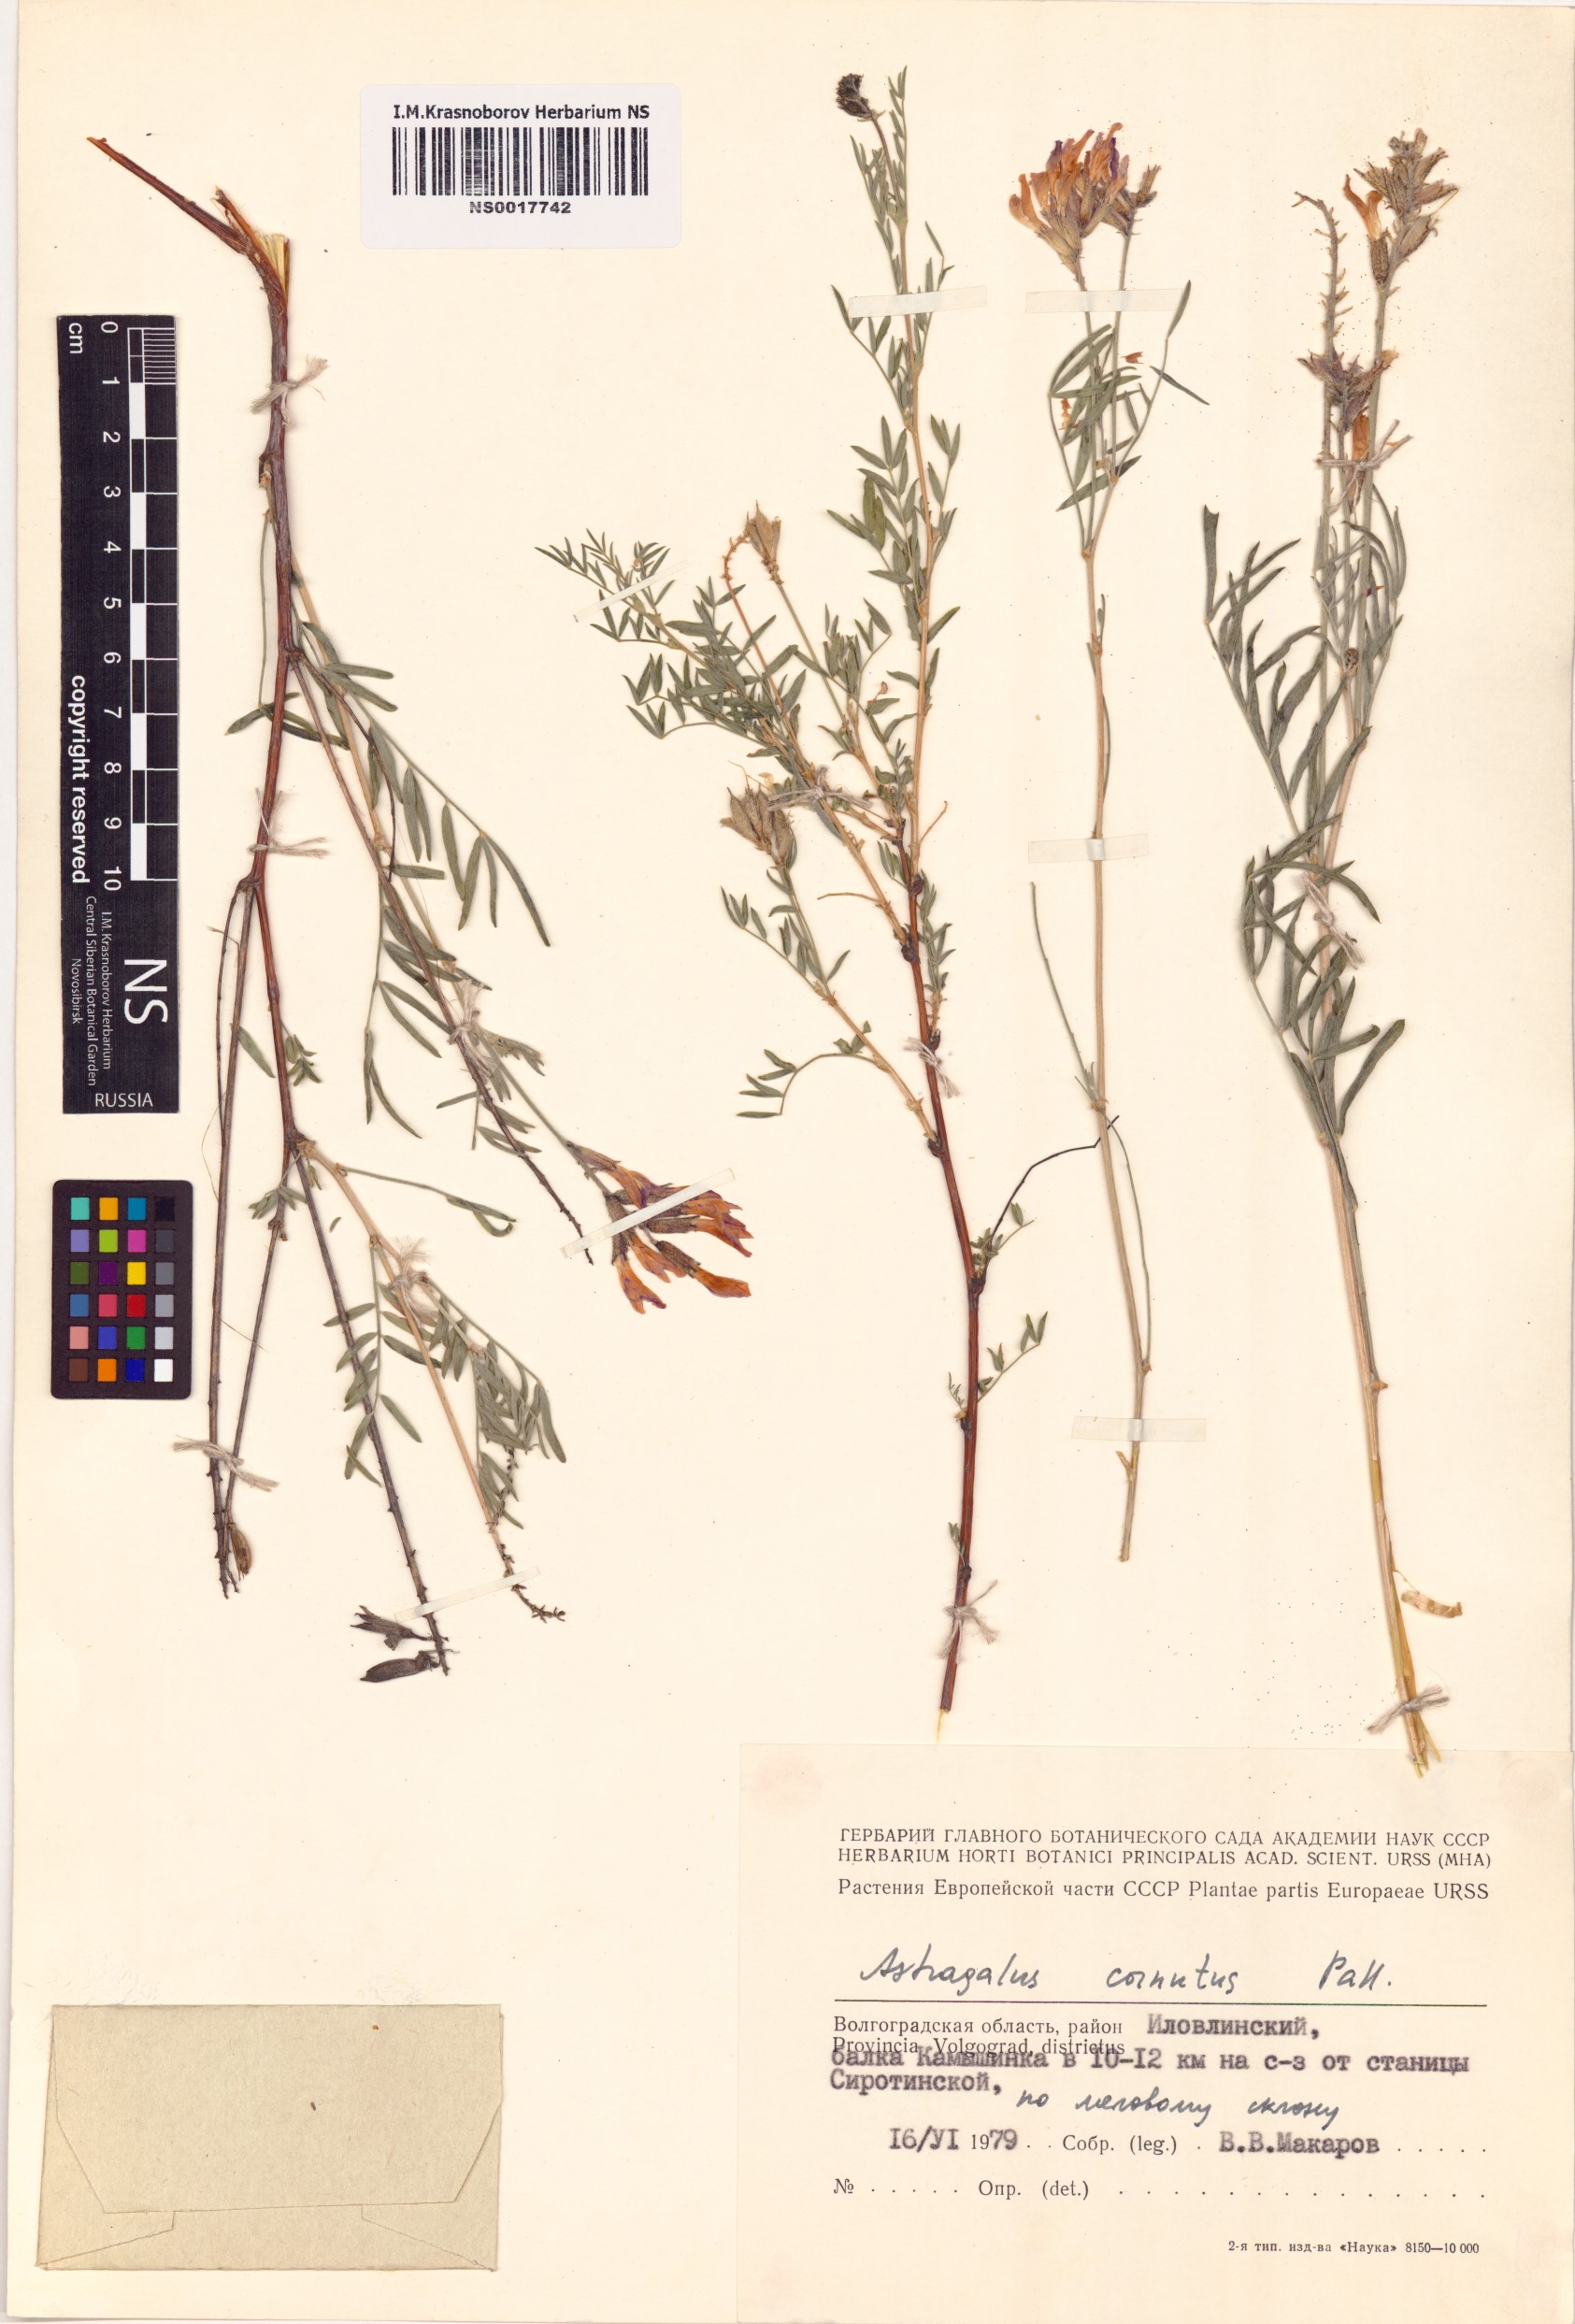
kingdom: Plantae
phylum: Tracheophyta
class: Magnoliopsida
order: Fabales
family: Fabaceae
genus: Astragalus
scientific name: Astragalus cornutus
